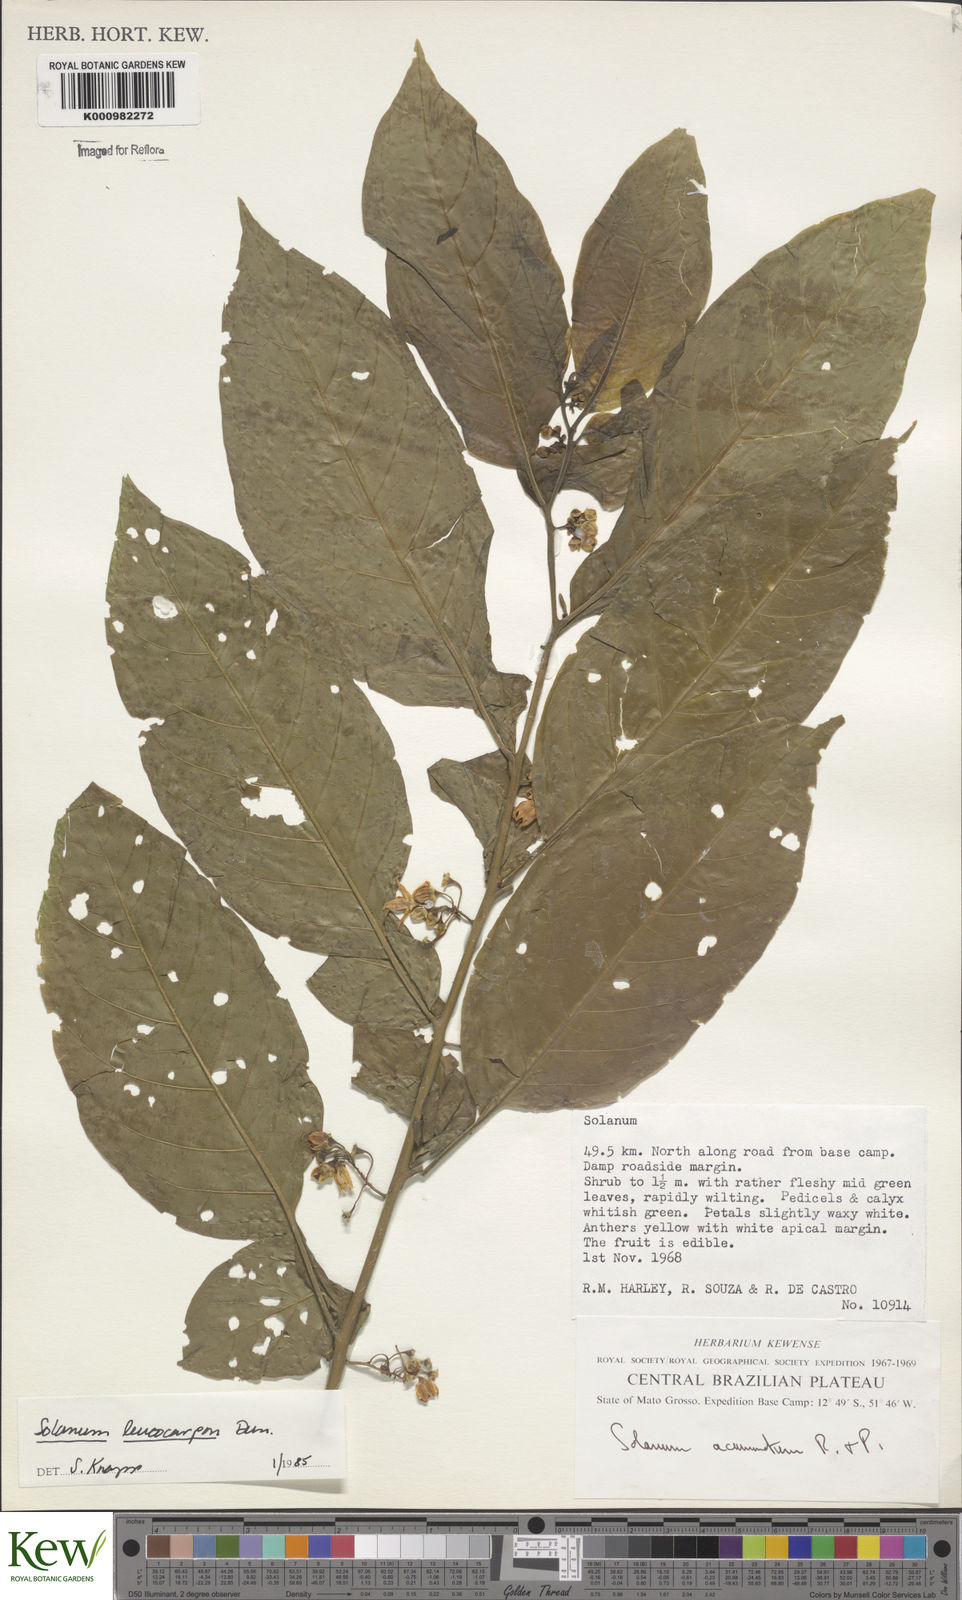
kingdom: Plantae
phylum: Tracheophyta
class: Magnoliopsida
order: Solanales
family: Solanaceae
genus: Solanum
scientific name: Solanum leucocarpon
